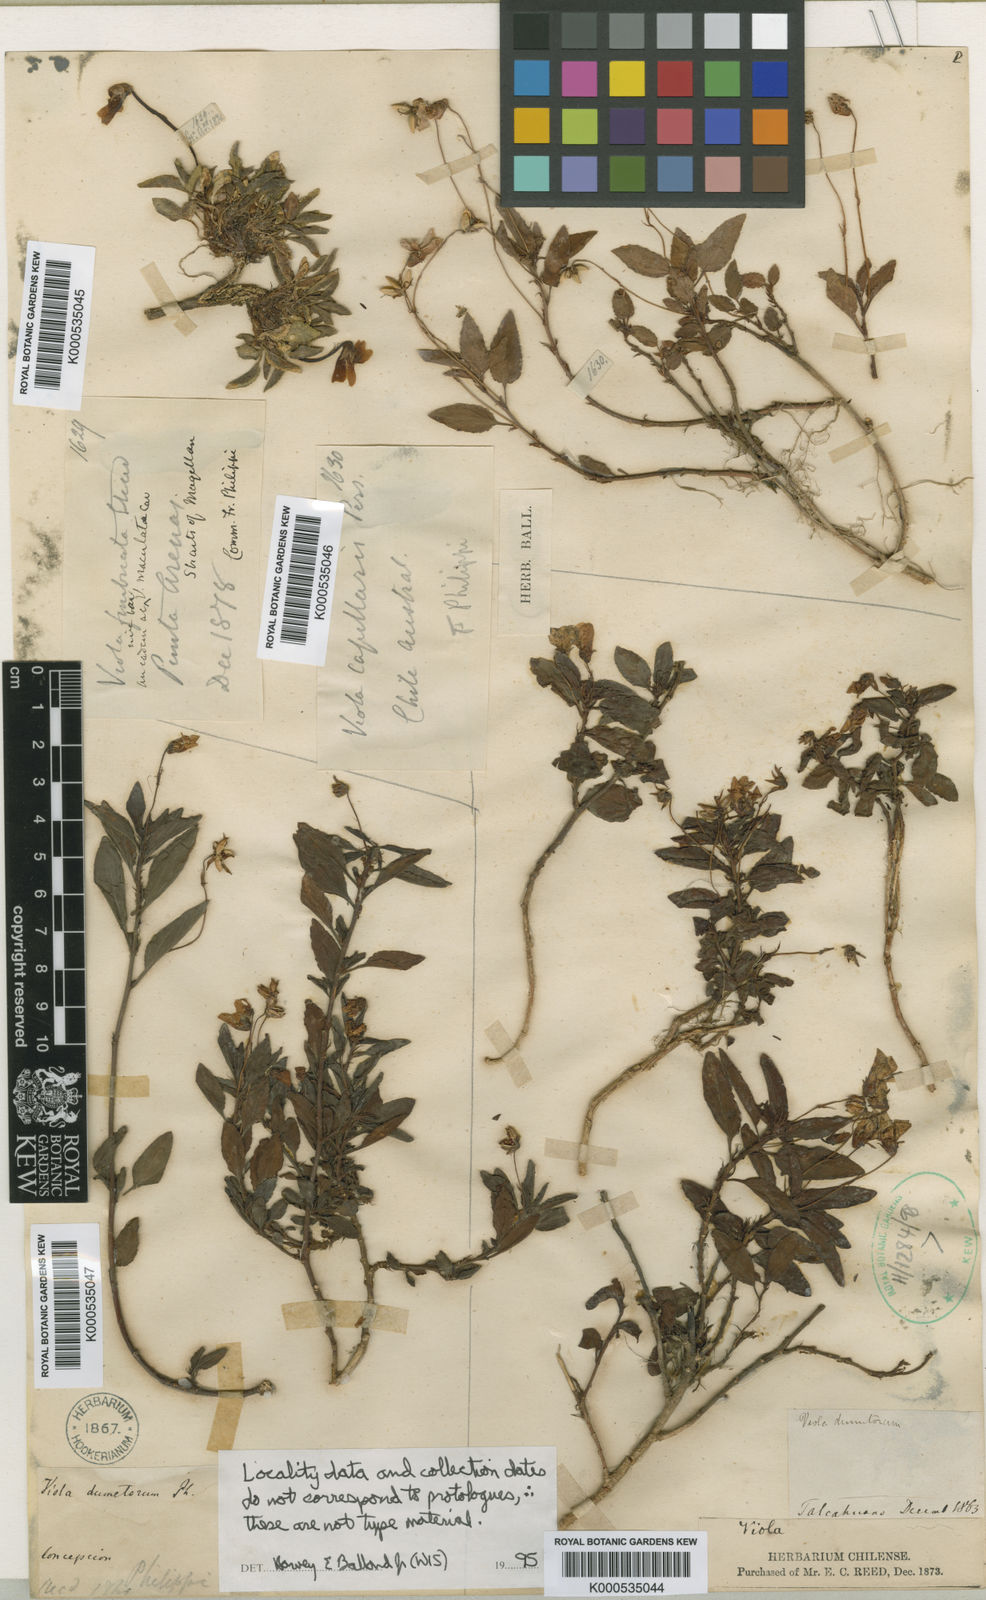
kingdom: Plantae
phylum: Tracheophyta
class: Magnoliopsida
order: Malpighiales
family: Violaceae
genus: Viola
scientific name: Viola
